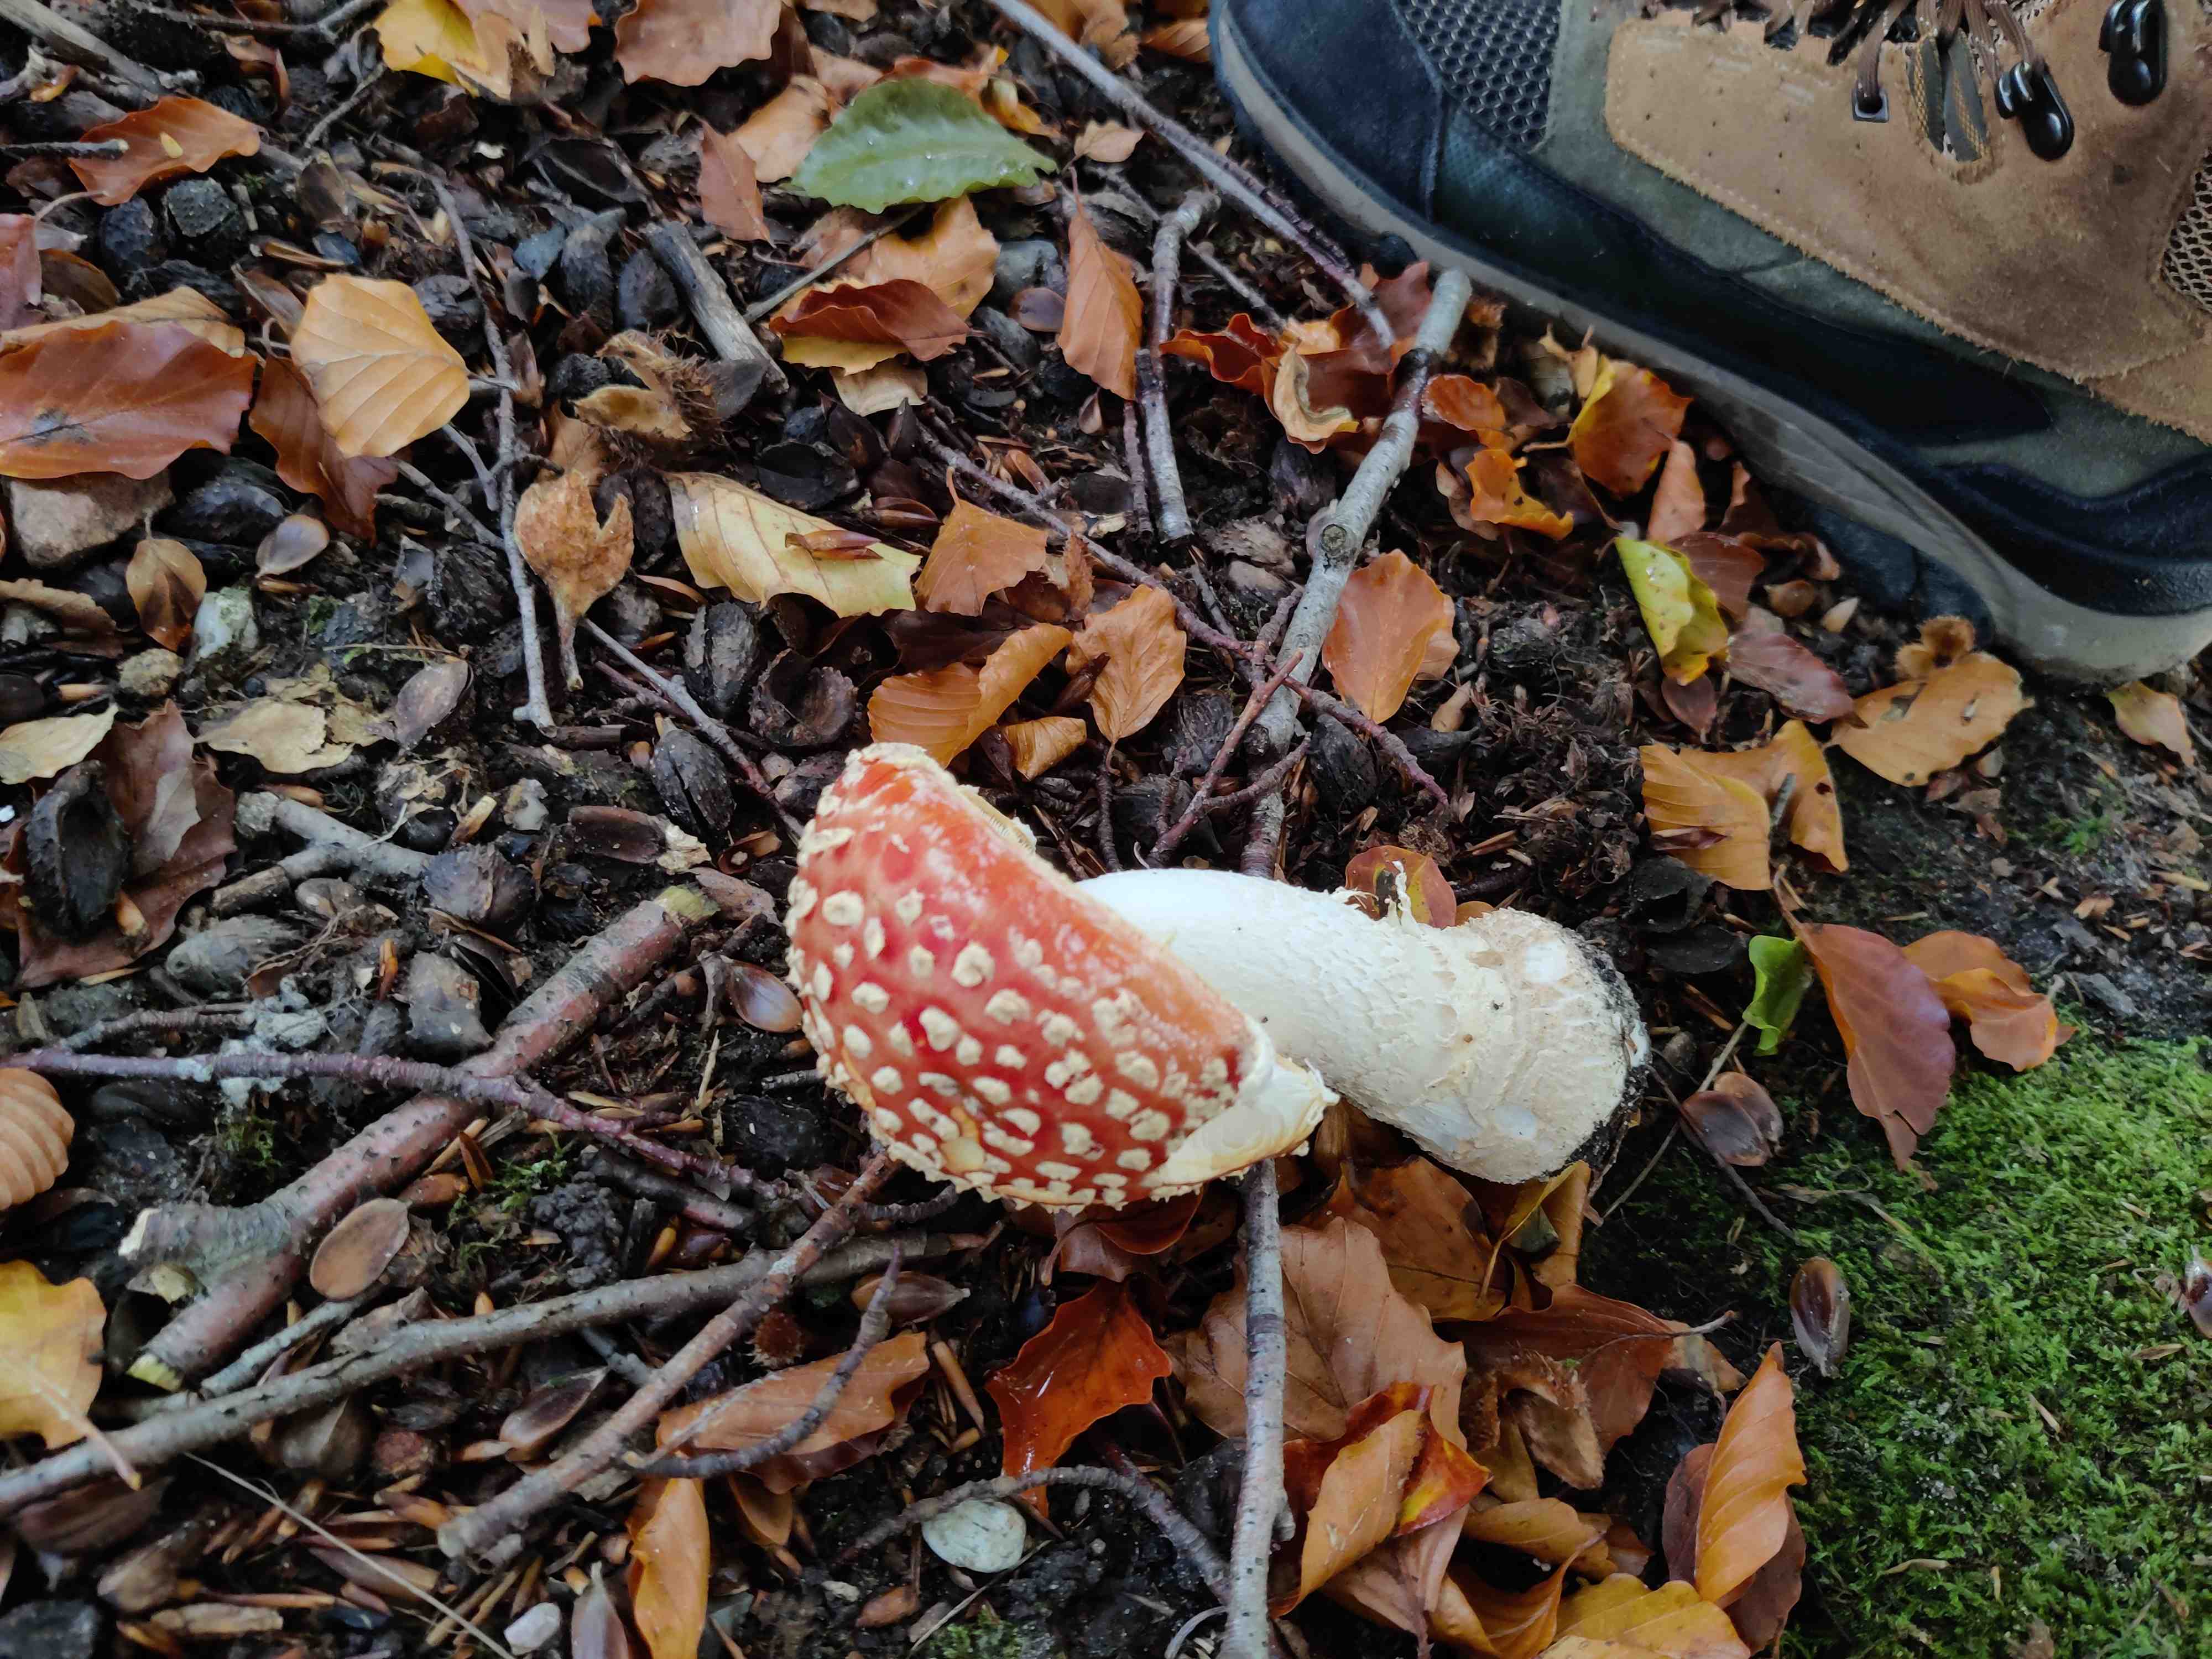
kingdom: Fungi
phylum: Basidiomycota
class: Agaricomycetes
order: Agaricales
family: Amanitaceae
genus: Amanita
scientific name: Amanita muscaria
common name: rød fluesvamp
